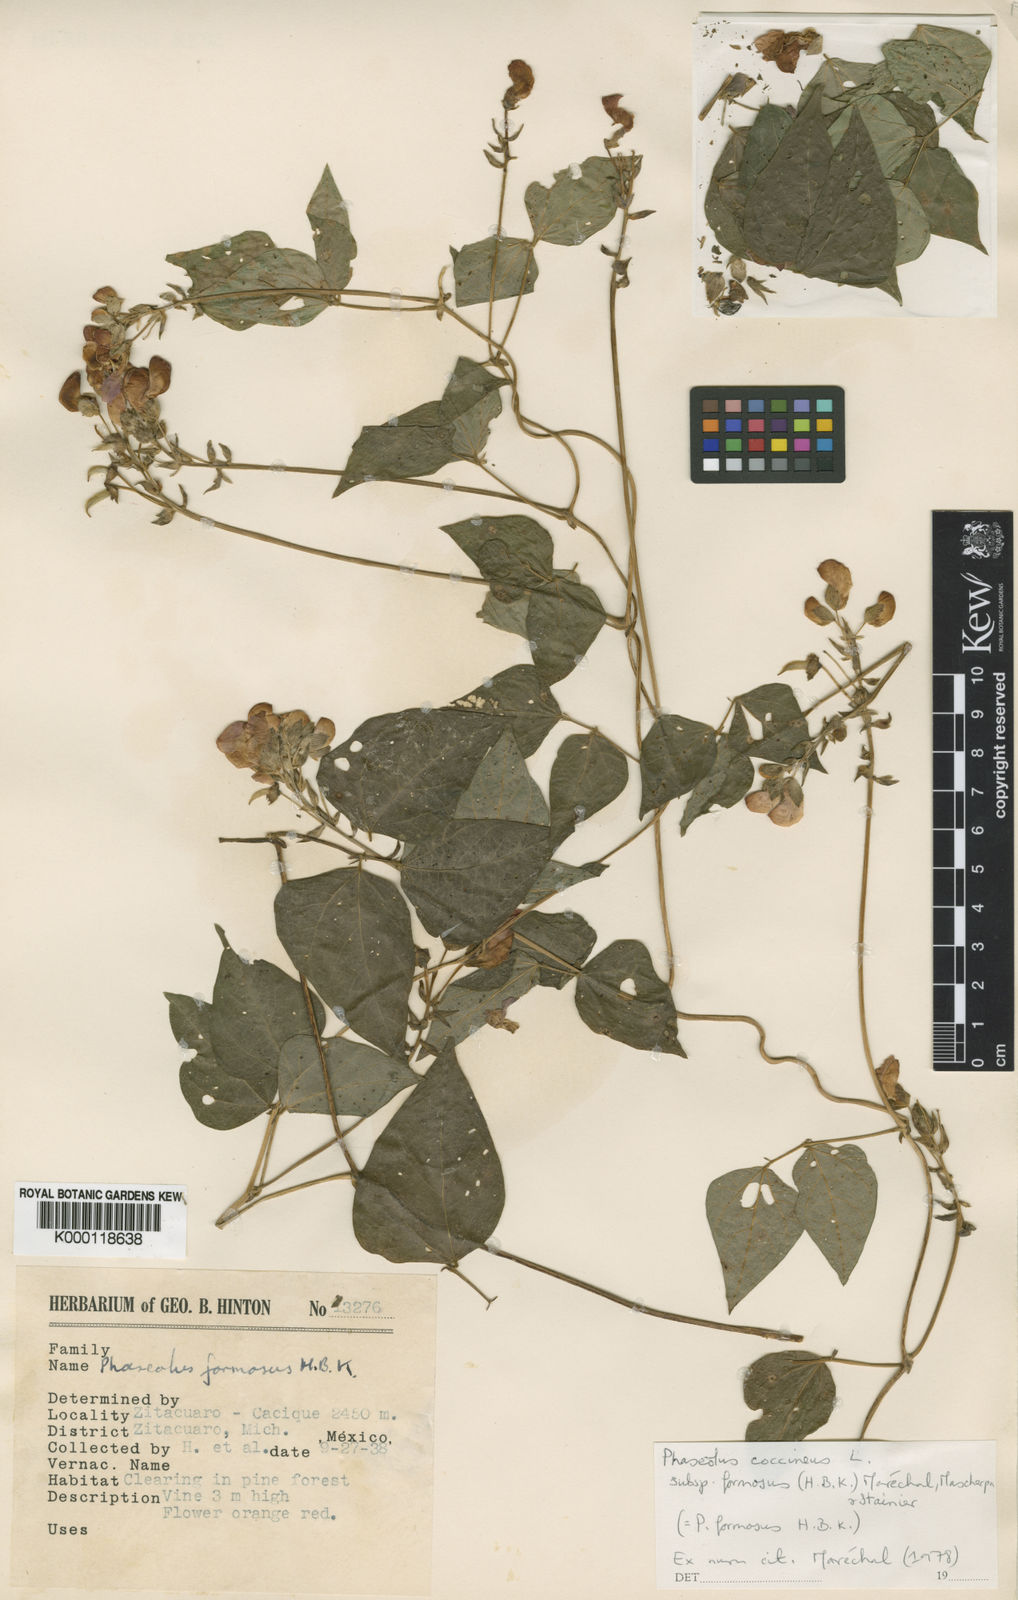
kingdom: Plantae
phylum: Tracheophyta
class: Magnoliopsida
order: Fabales
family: Fabaceae
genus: Phaseolus
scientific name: Phaseolus coccineus
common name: Runner bean
